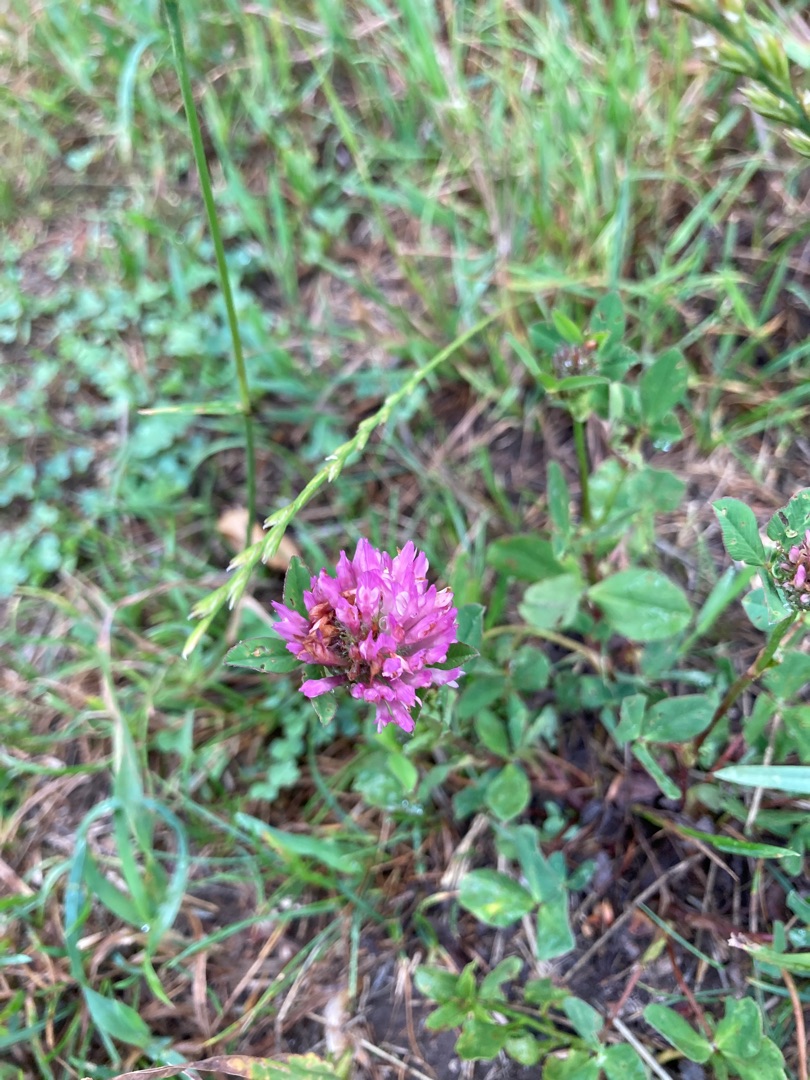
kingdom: Plantae
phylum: Tracheophyta
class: Magnoliopsida
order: Fabales
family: Fabaceae
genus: Trifolium
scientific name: Trifolium pratense
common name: Rød-kløver
